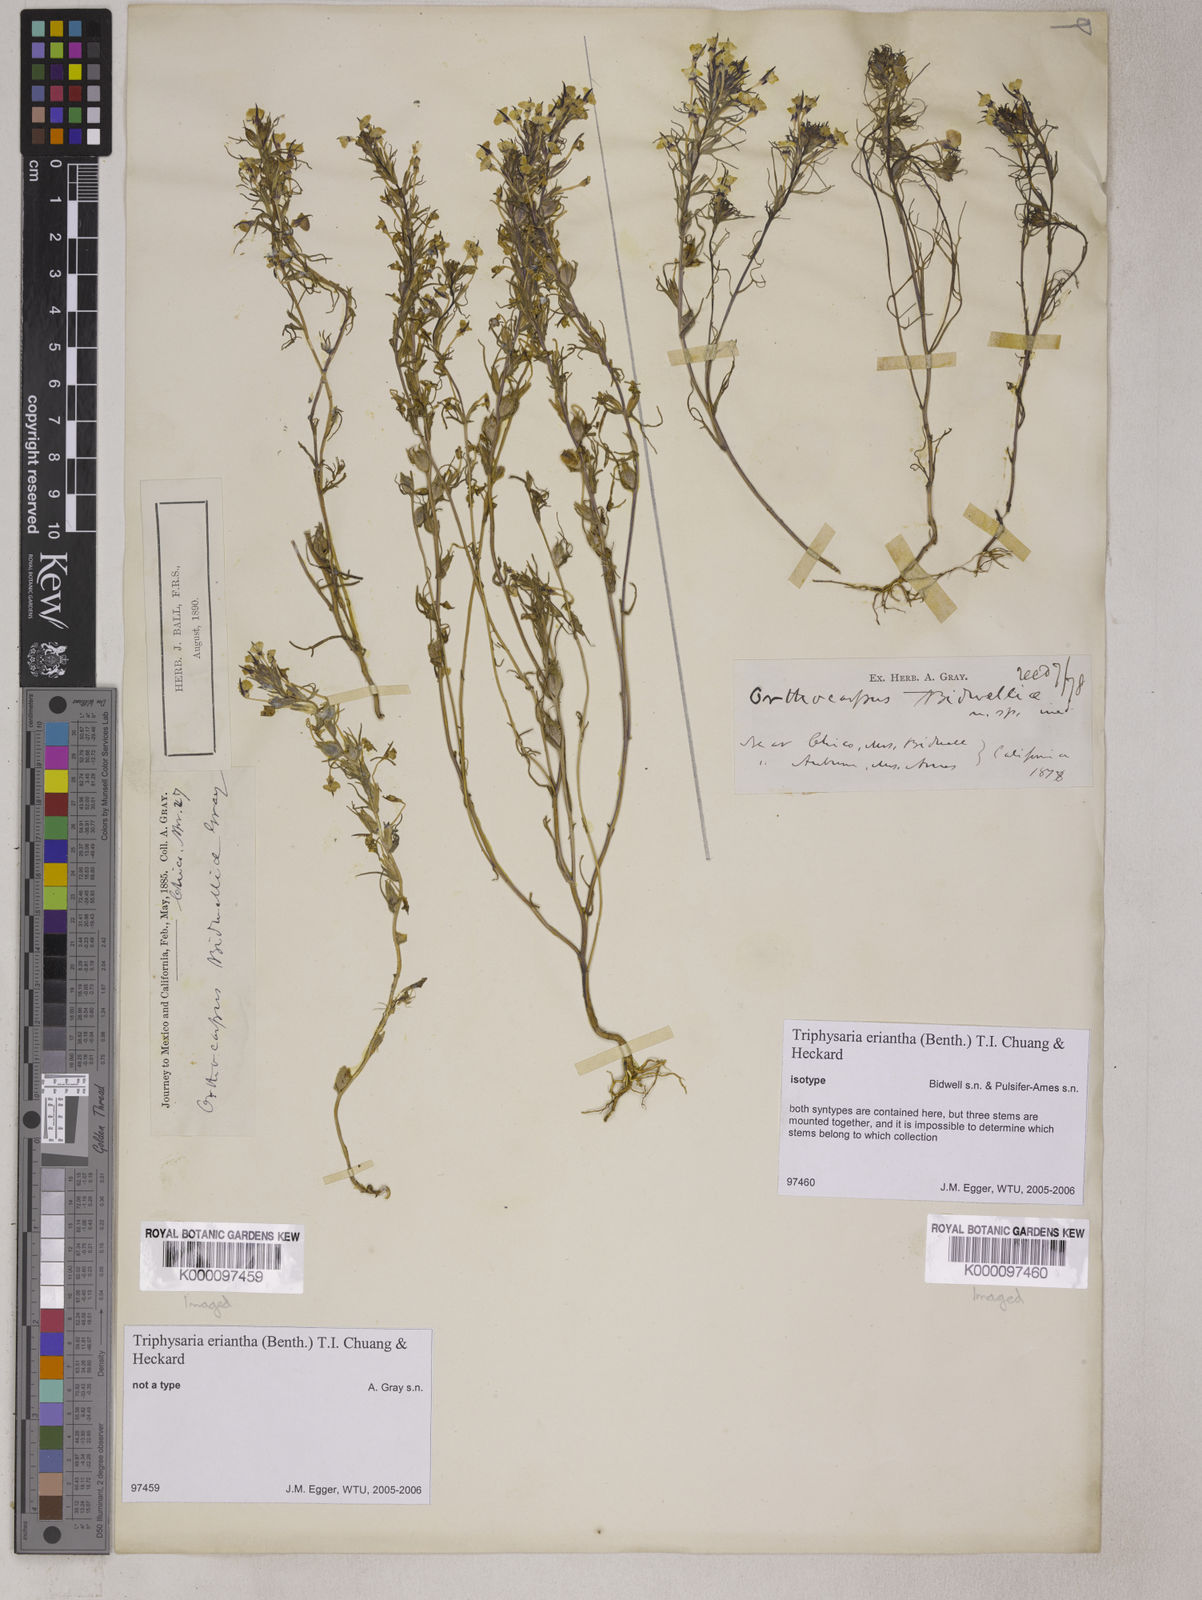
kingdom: Plantae
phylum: Tracheophyta
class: Magnoliopsida
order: Lamiales
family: Orobanchaceae
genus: Triphysaria
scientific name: Triphysaria eriantha
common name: Johnny-tuck
